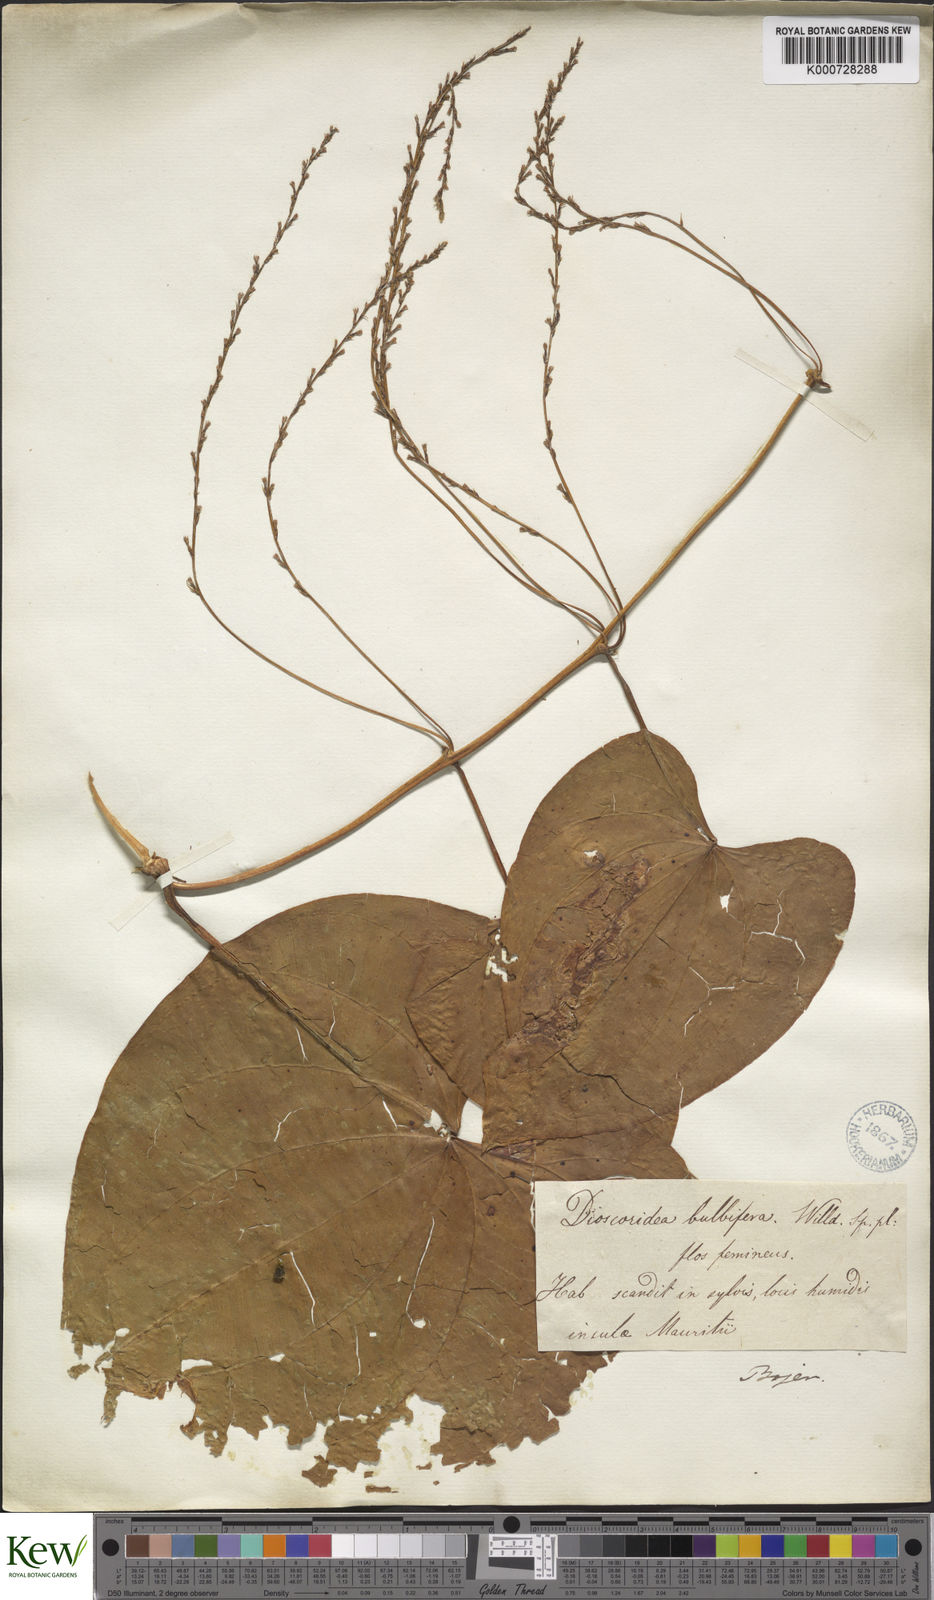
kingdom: Plantae
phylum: Tracheophyta
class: Liliopsida
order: Dioscoreales
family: Dioscoreaceae
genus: Dioscorea
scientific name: Dioscorea bulbifera
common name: Air yam
